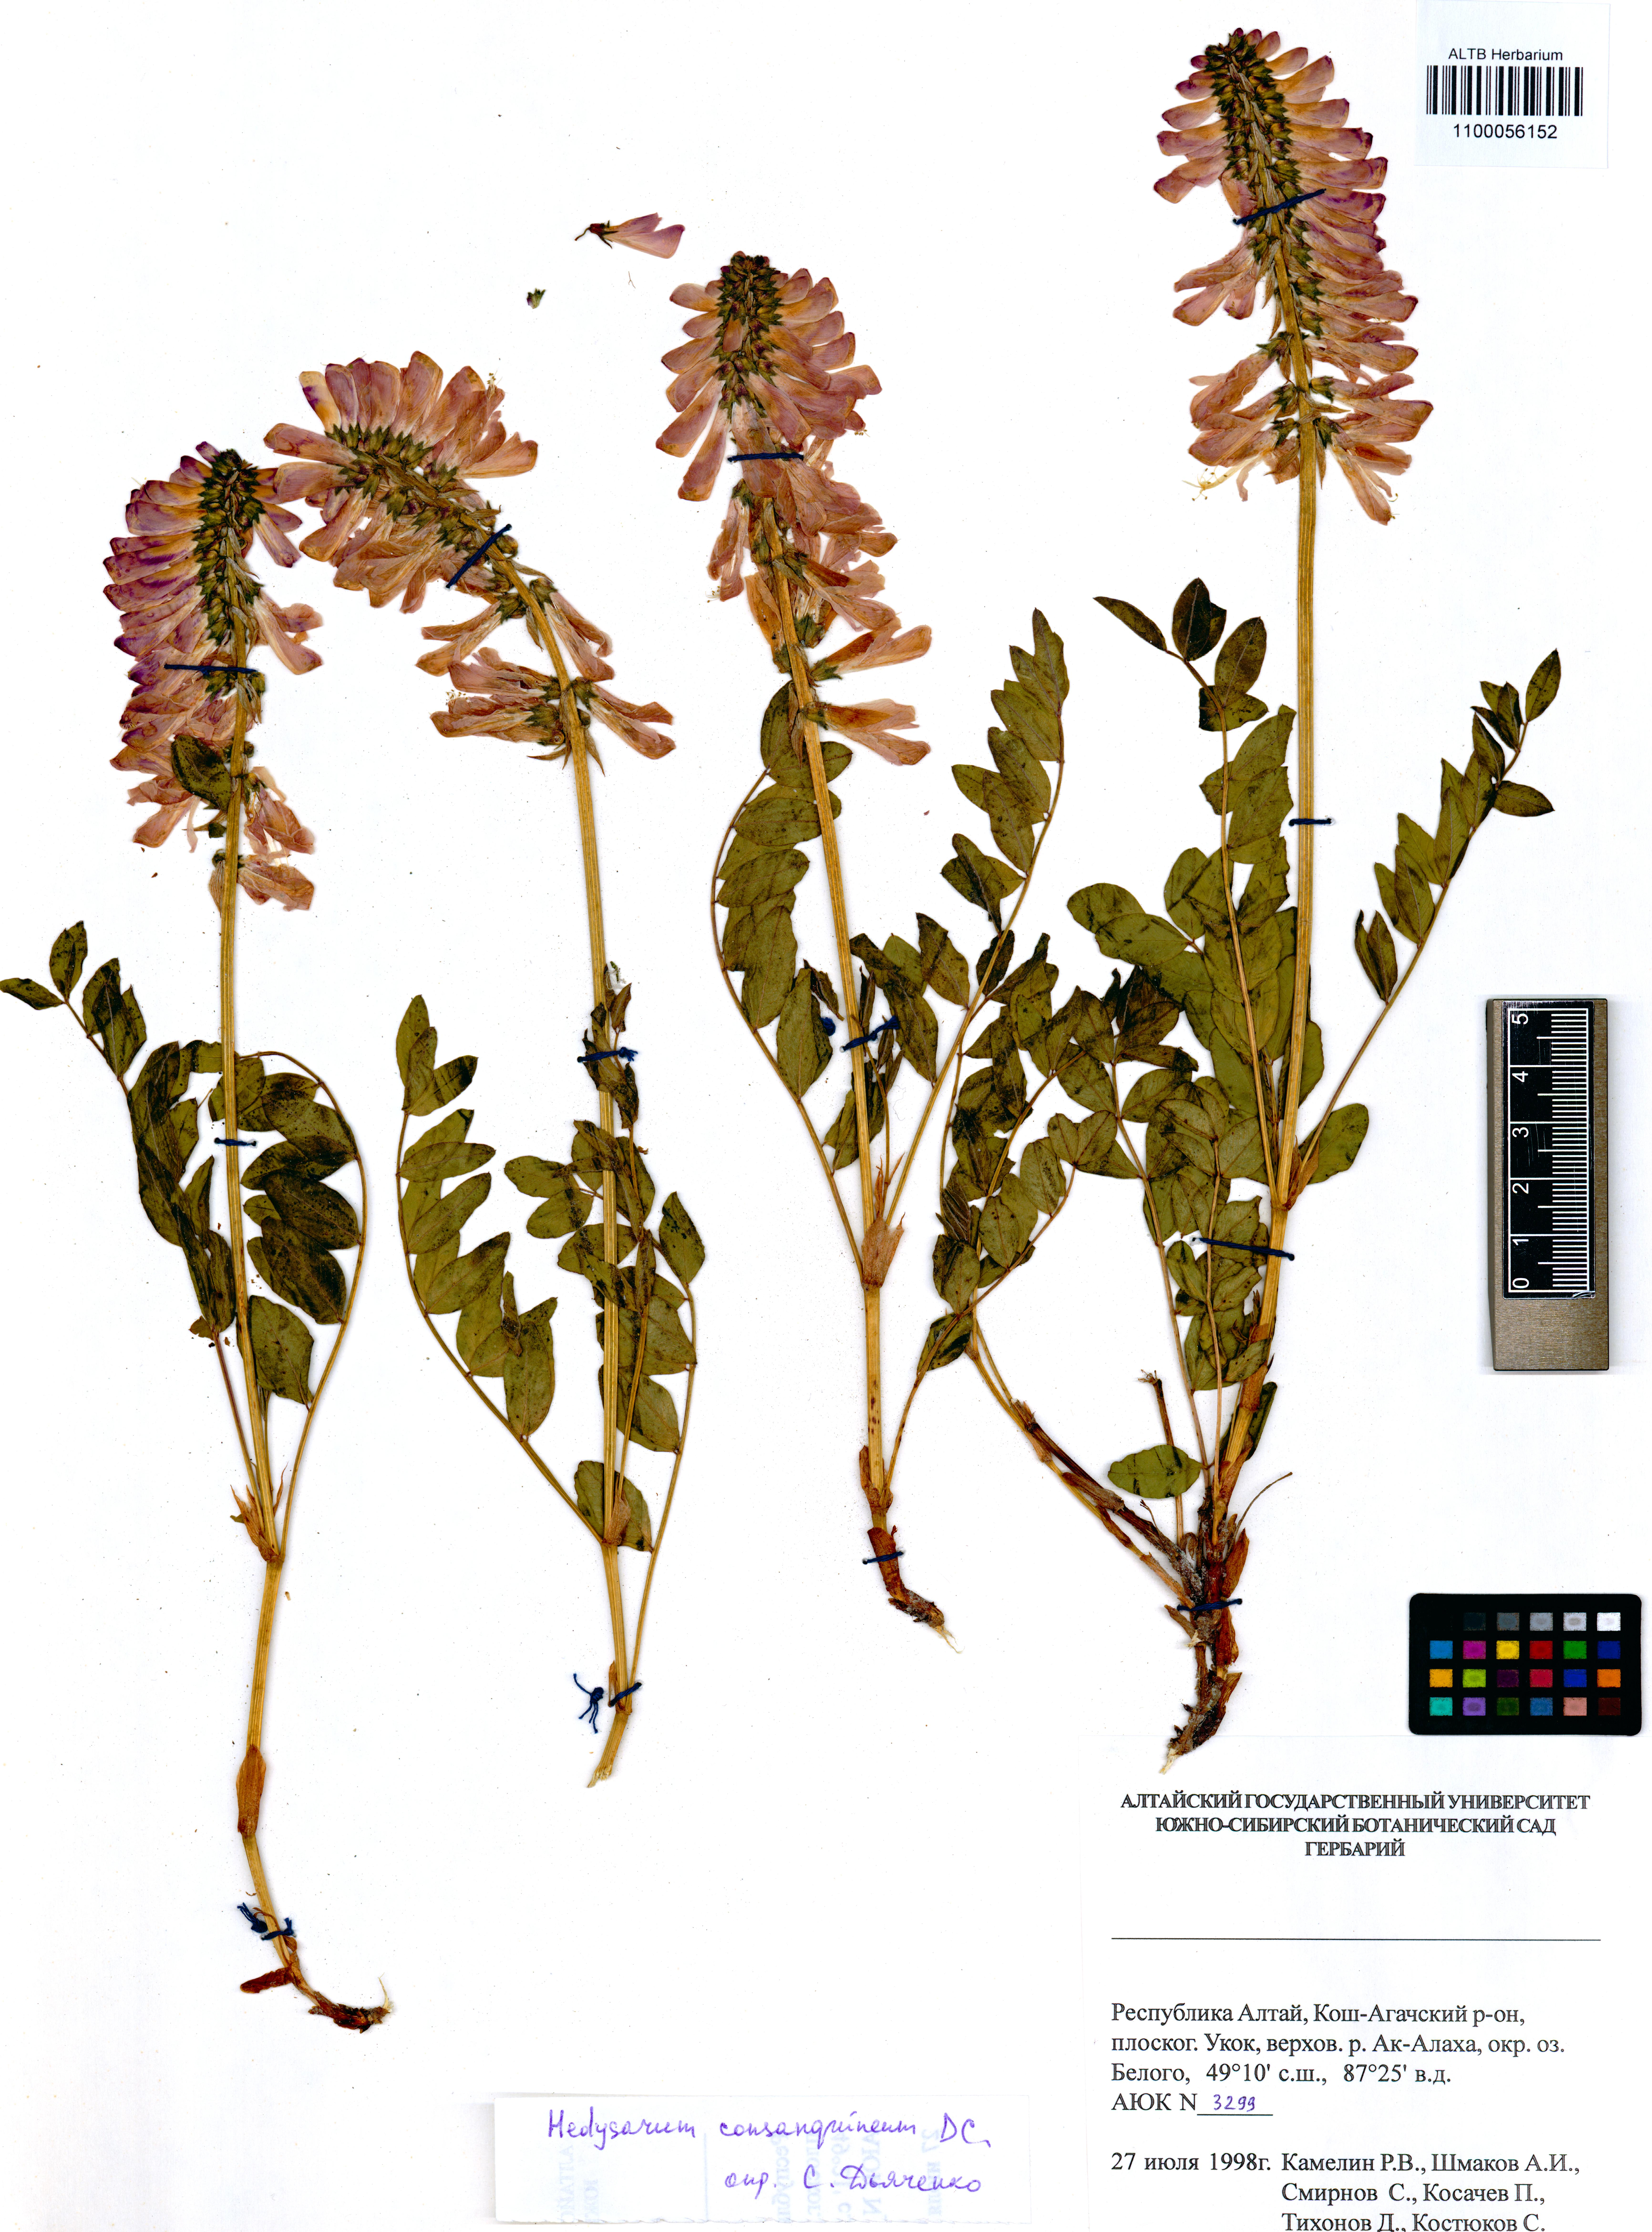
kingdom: Plantae
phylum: Tracheophyta
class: Magnoliopsida
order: Fabales
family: Fabaceae
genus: Hedysarum
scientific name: Hedysarum consanguineum
